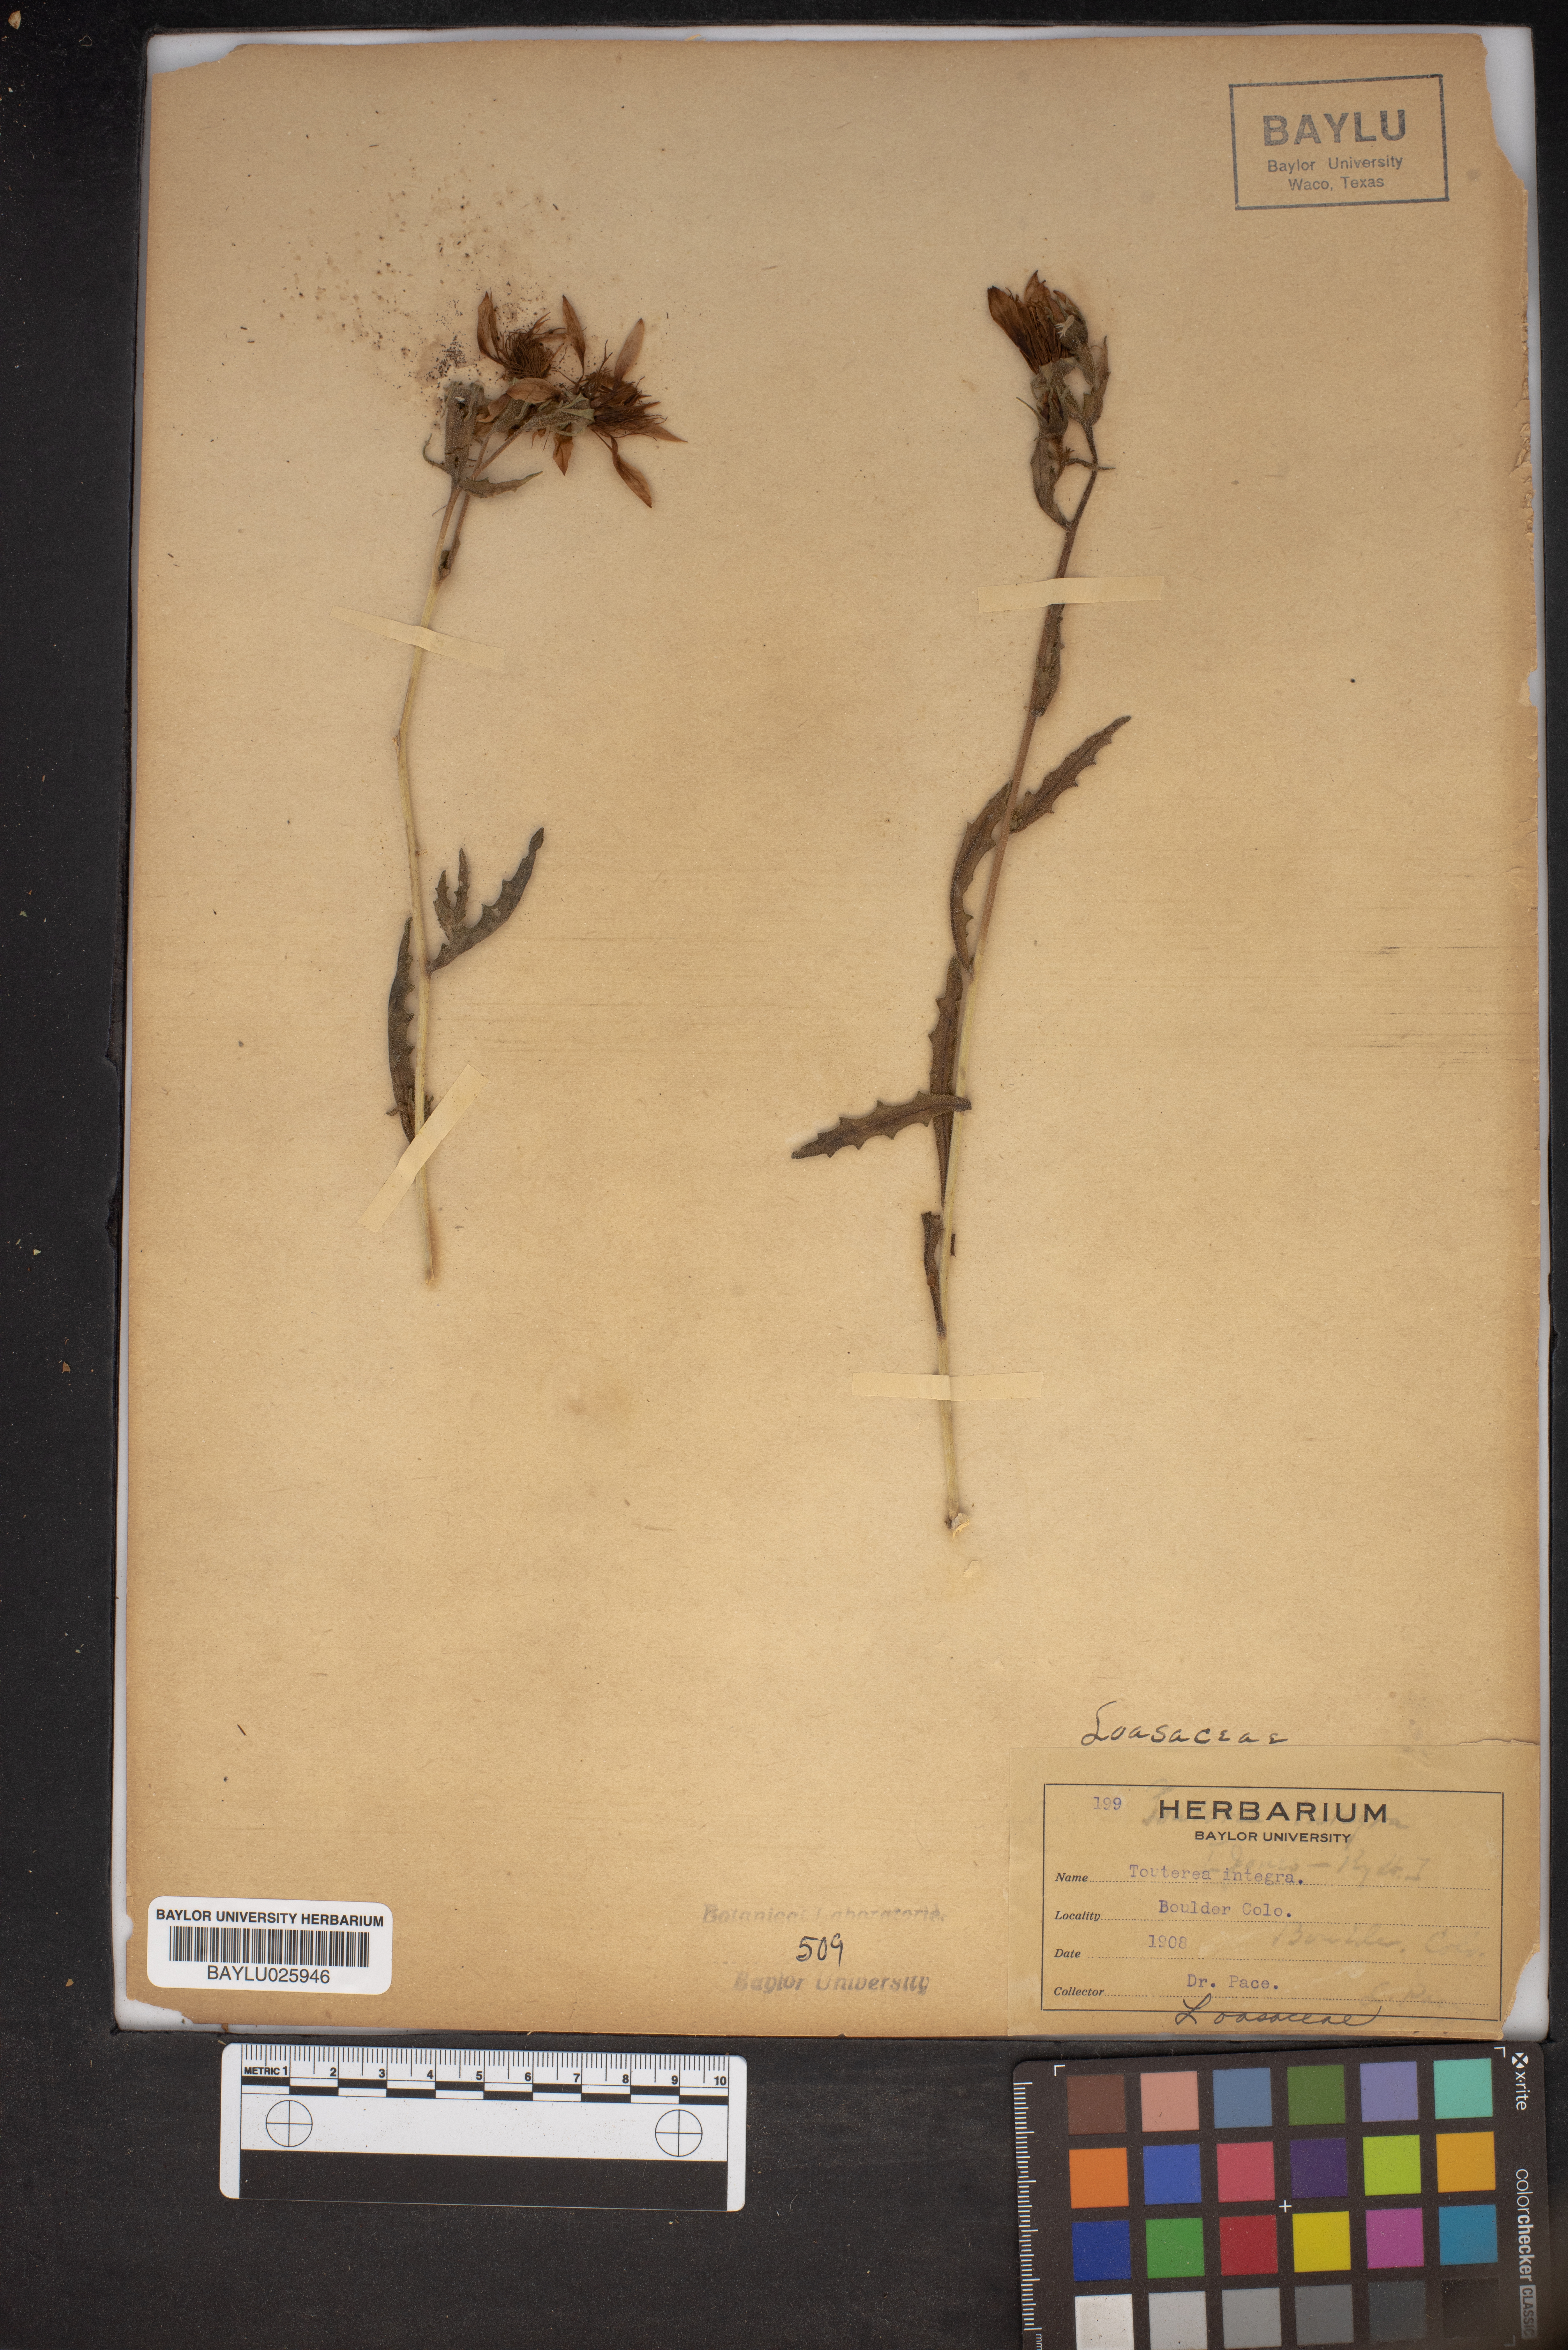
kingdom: Plantae
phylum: Tracheophyta
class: Magnoliopsida
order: Cornales
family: Loasaceae
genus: Mentzelia
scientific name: Mentzelia integra
